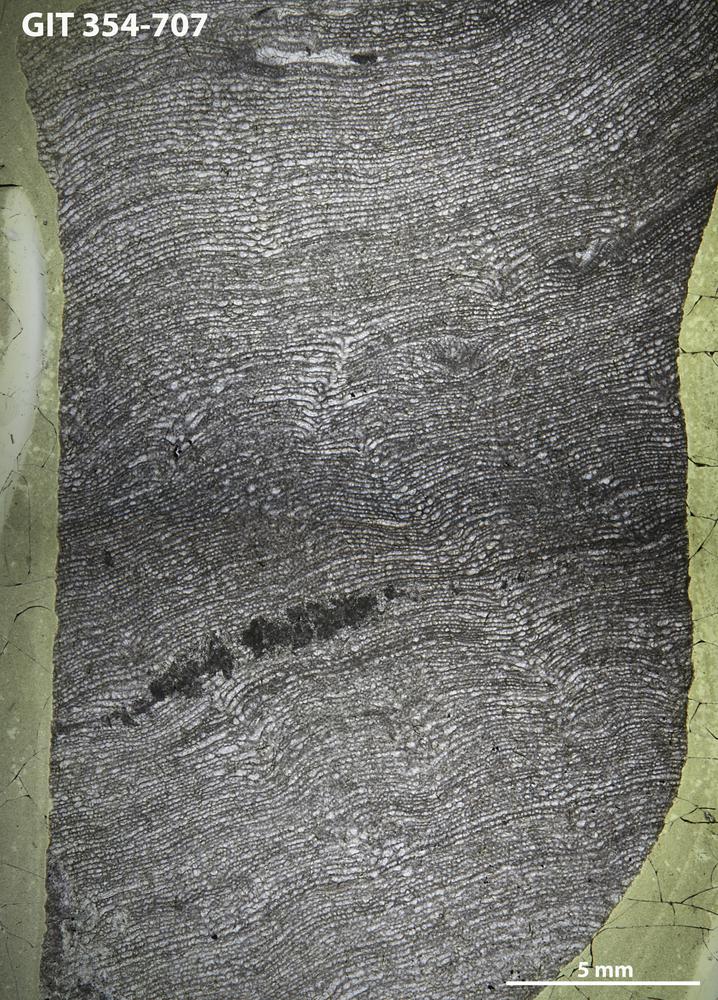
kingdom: Animalia
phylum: Porifera
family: Clathrodictyidae
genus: Clathrodictyon
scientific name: Clathrodictyon Stromatopora variolaris
